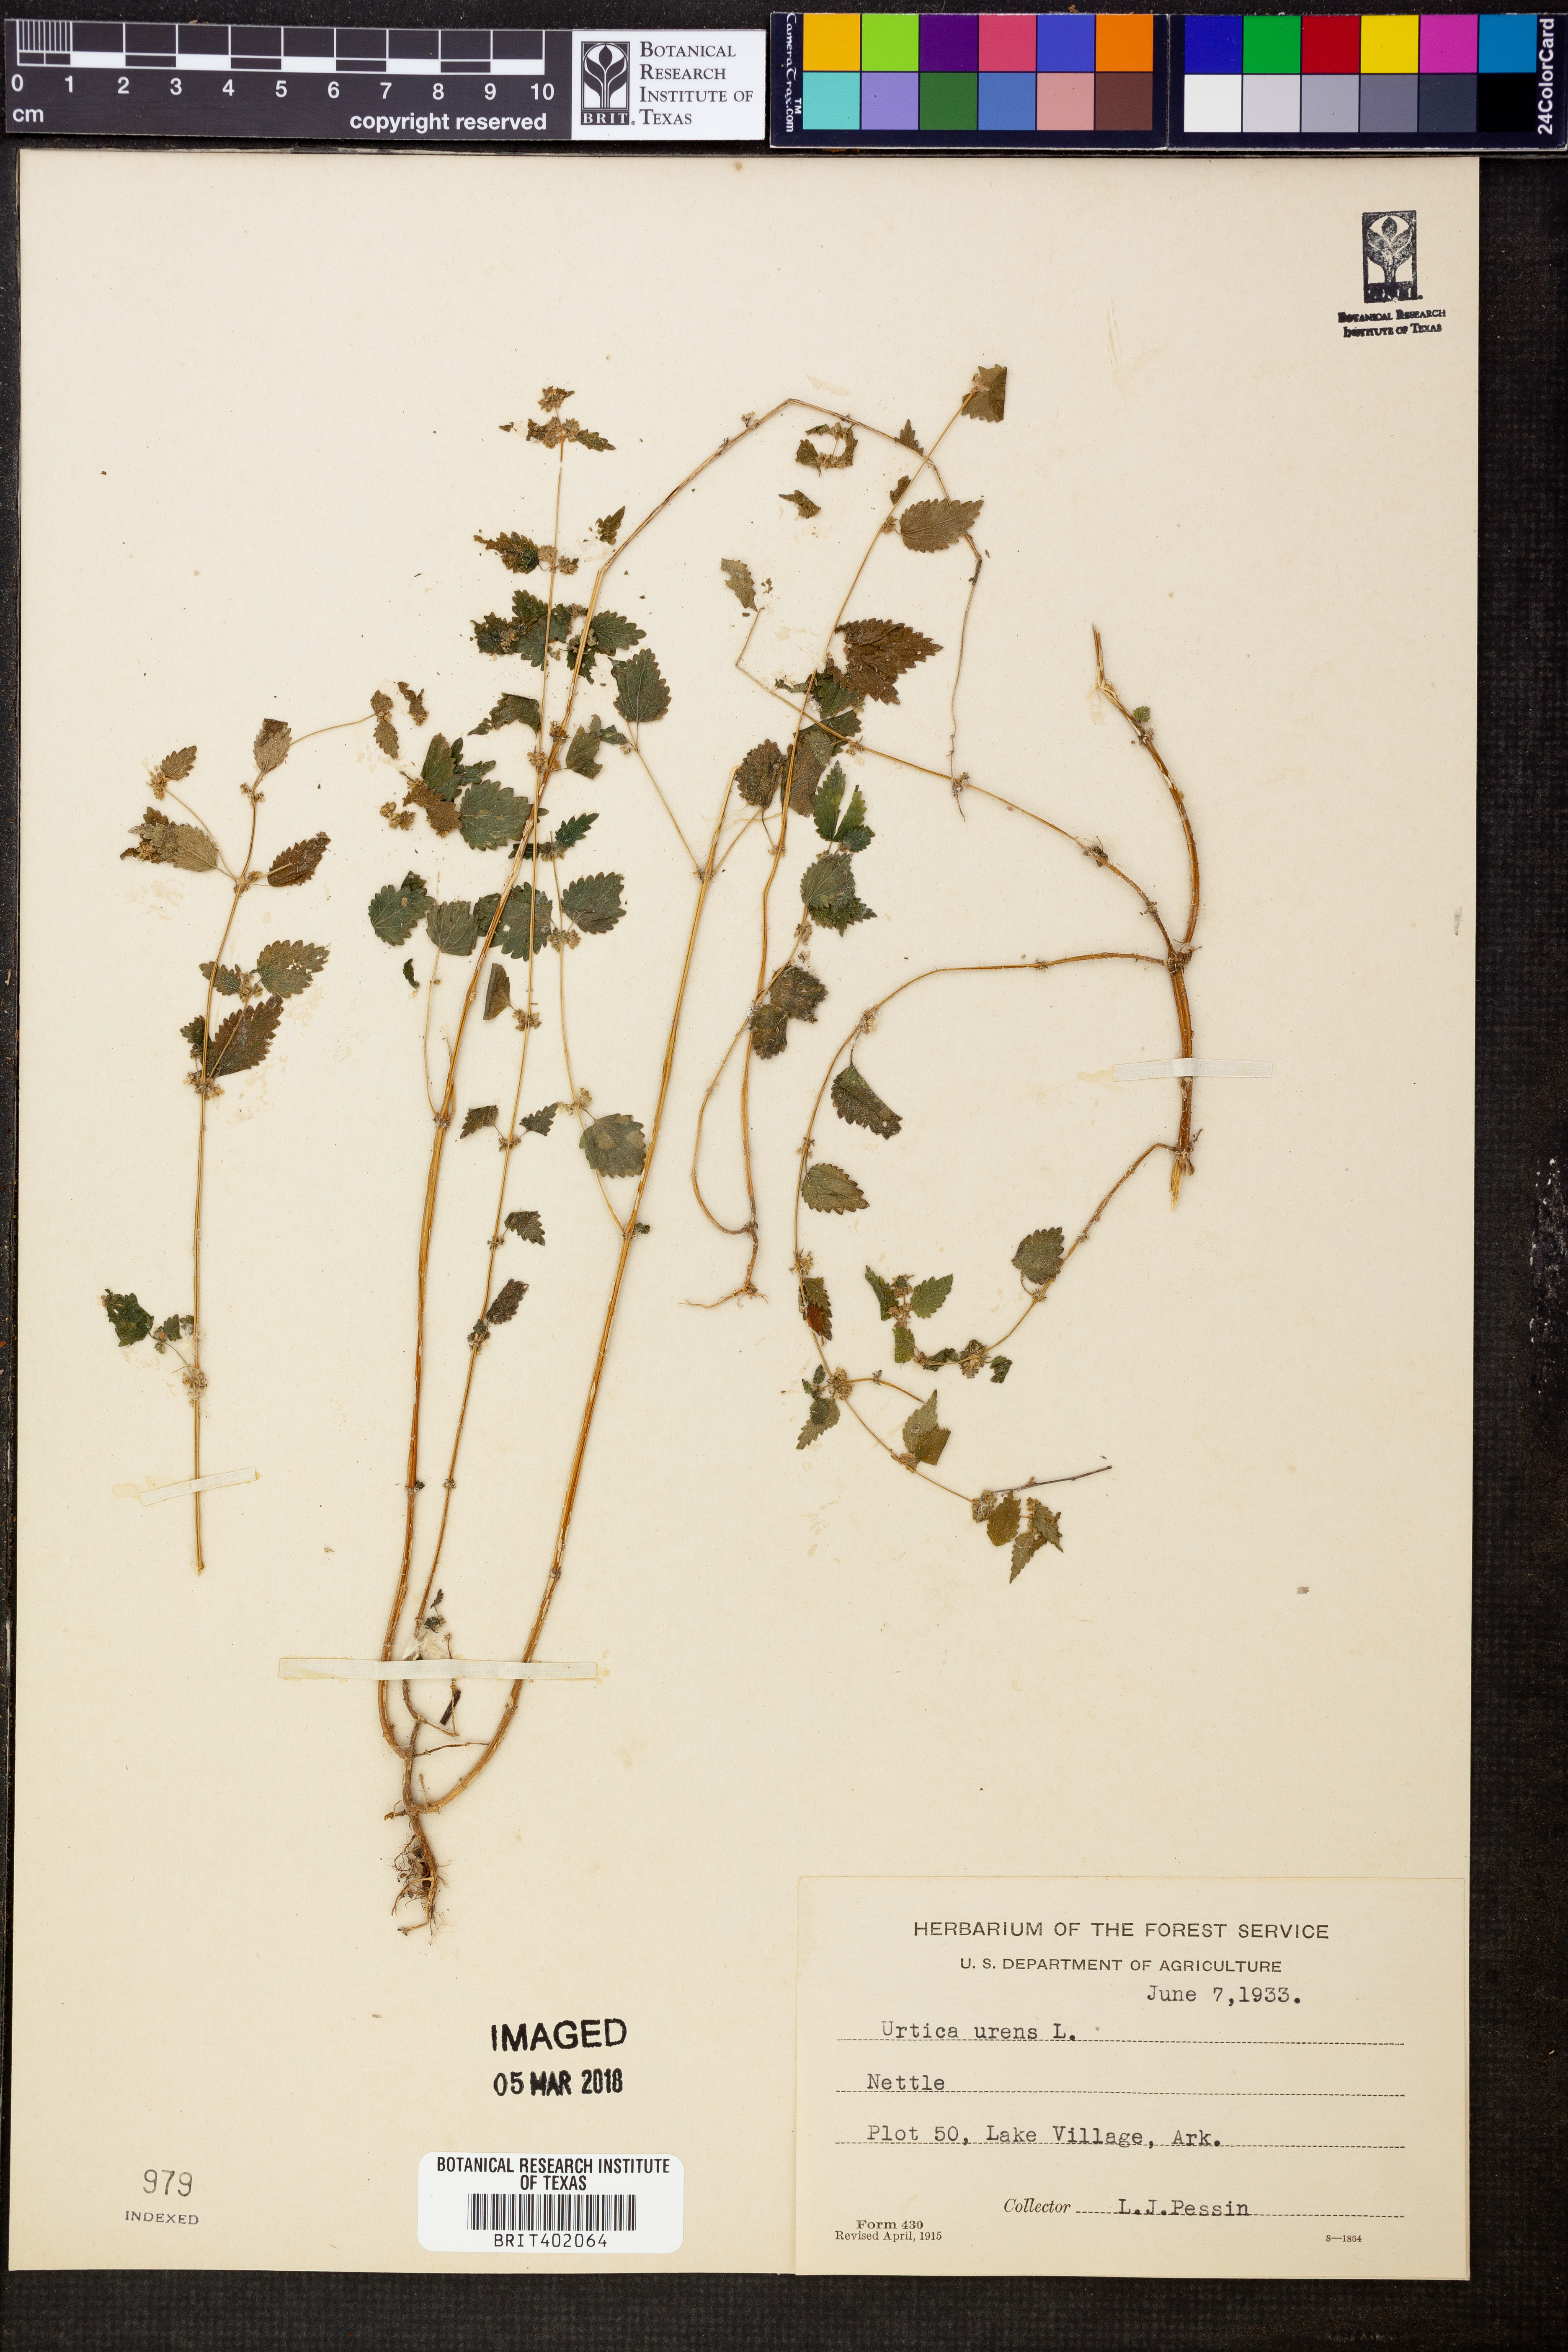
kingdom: Plantae
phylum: Tracheophyta
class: Magnoliopsida
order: Rosales
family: Urticaceae
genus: Urtica
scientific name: Urtica urens
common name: Dwarf nettle
